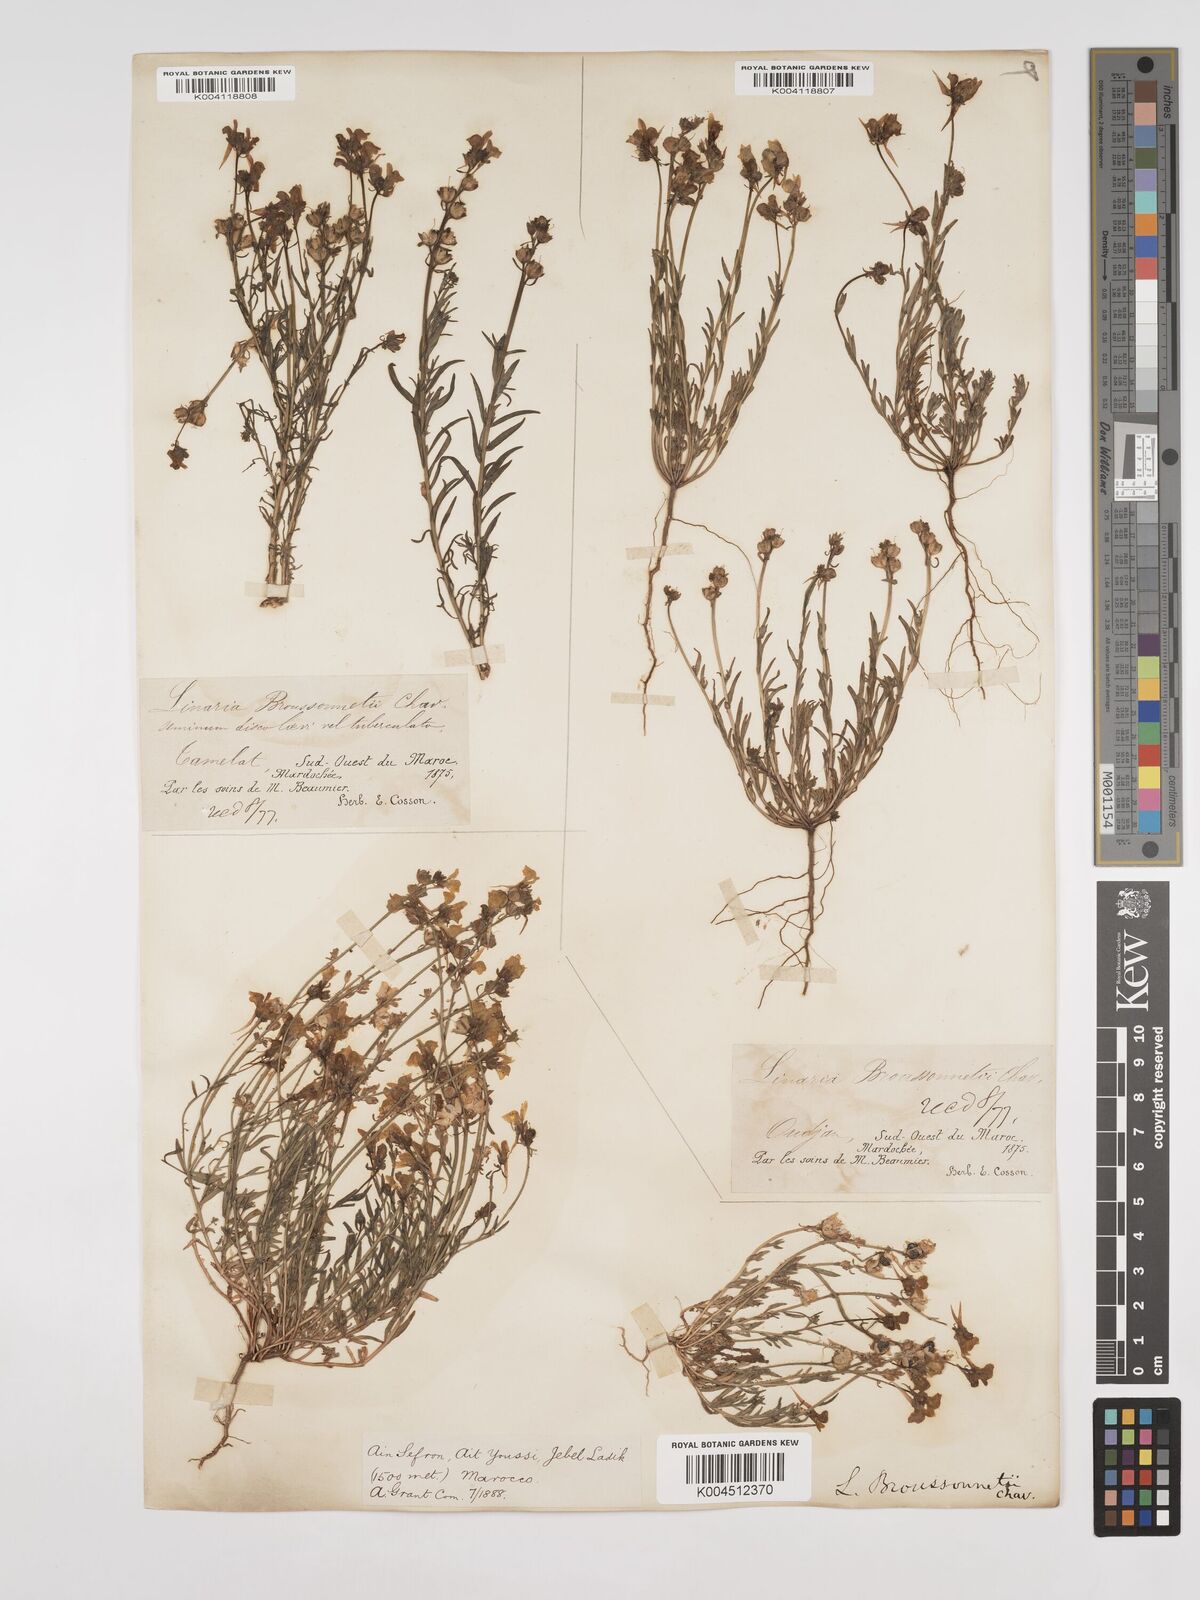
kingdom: Plantae
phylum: Tracheophyta
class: Magnoliopsida
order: Lamiales
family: Plantaginaceae
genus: Linaria
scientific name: Linaria
